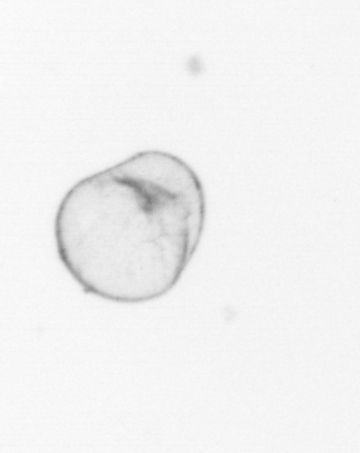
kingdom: Chromista
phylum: Myzozoa
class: Dinophyceae
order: Noctilucales
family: Noctilucaceae
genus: Noctiluca
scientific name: Noctiluca scintillans
